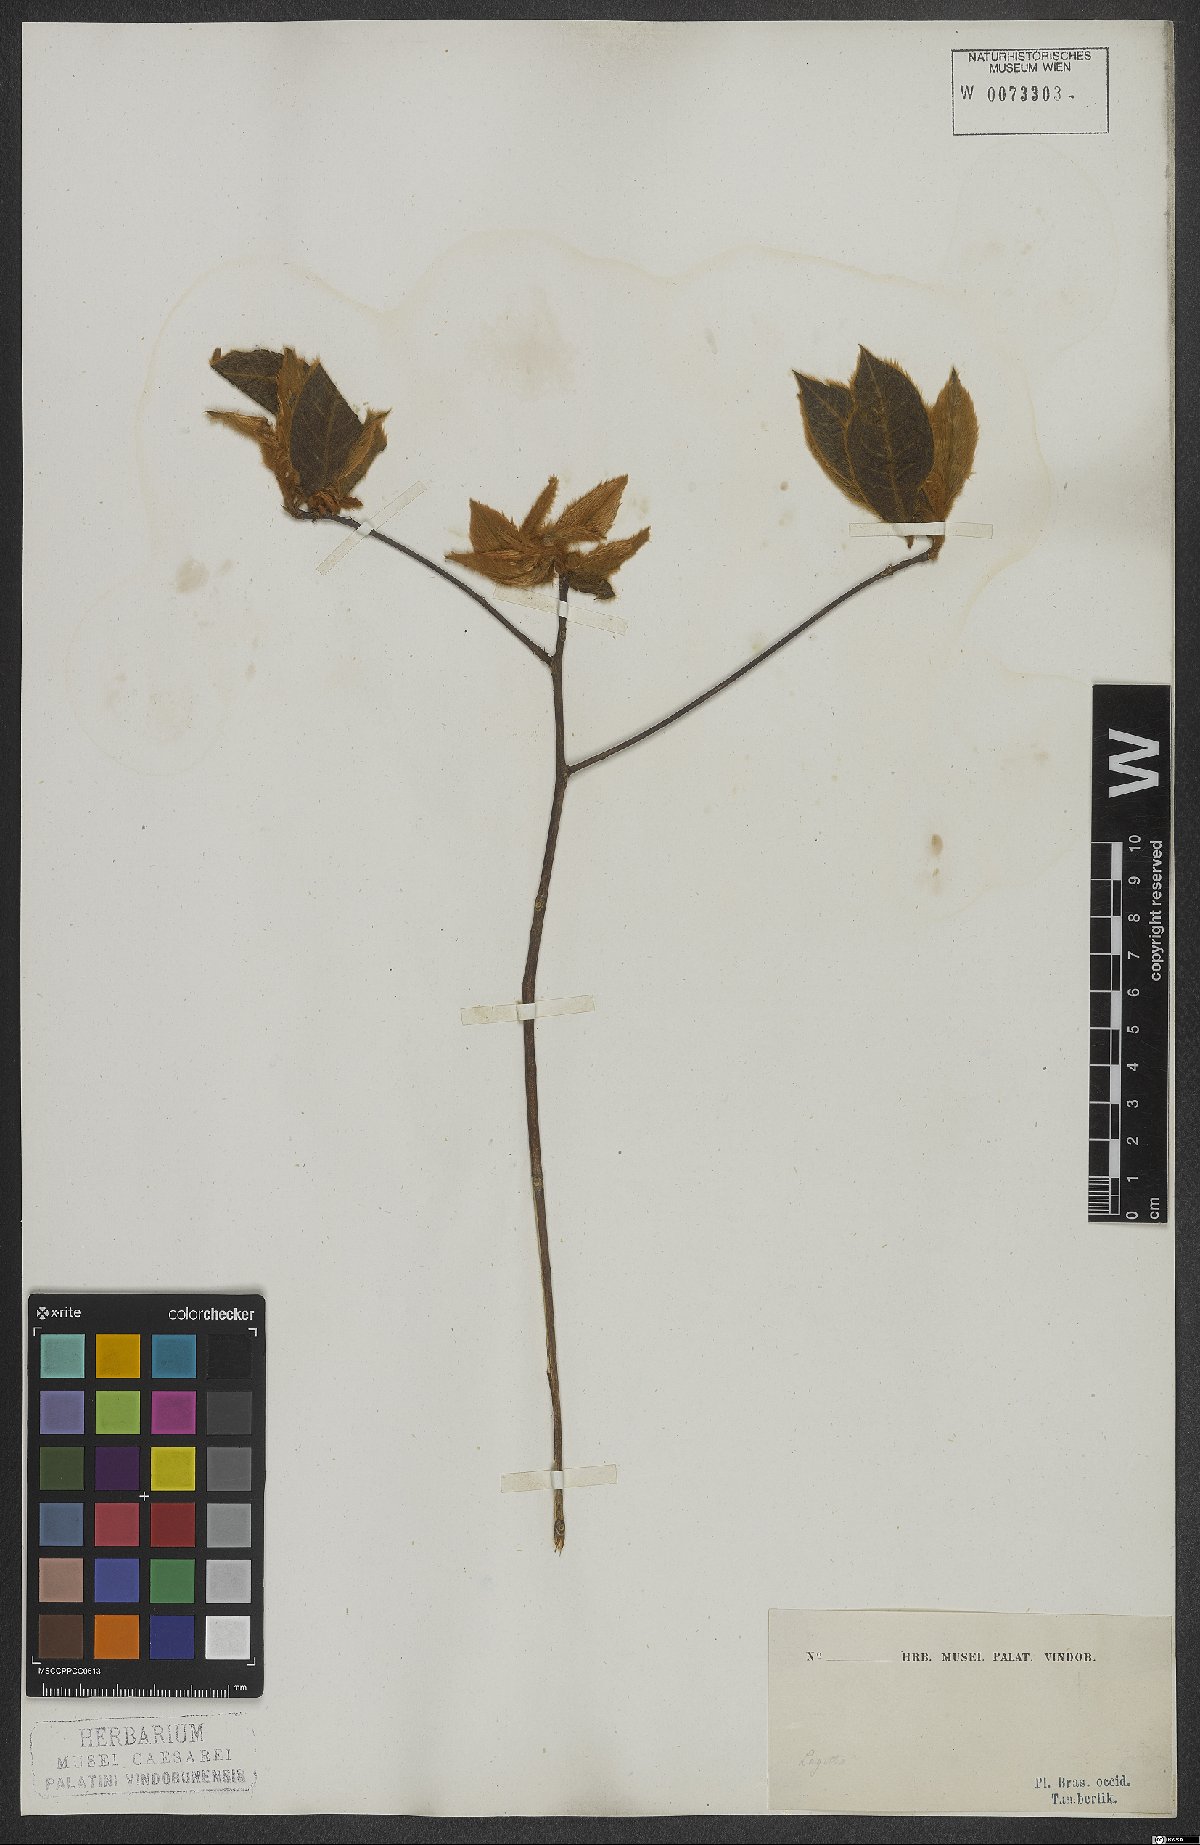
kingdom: Plantae
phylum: Tracheophyta
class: Magnoliopsida
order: Malvales
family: Thymelaeaceae
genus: Lagetta
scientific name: Lagetta
